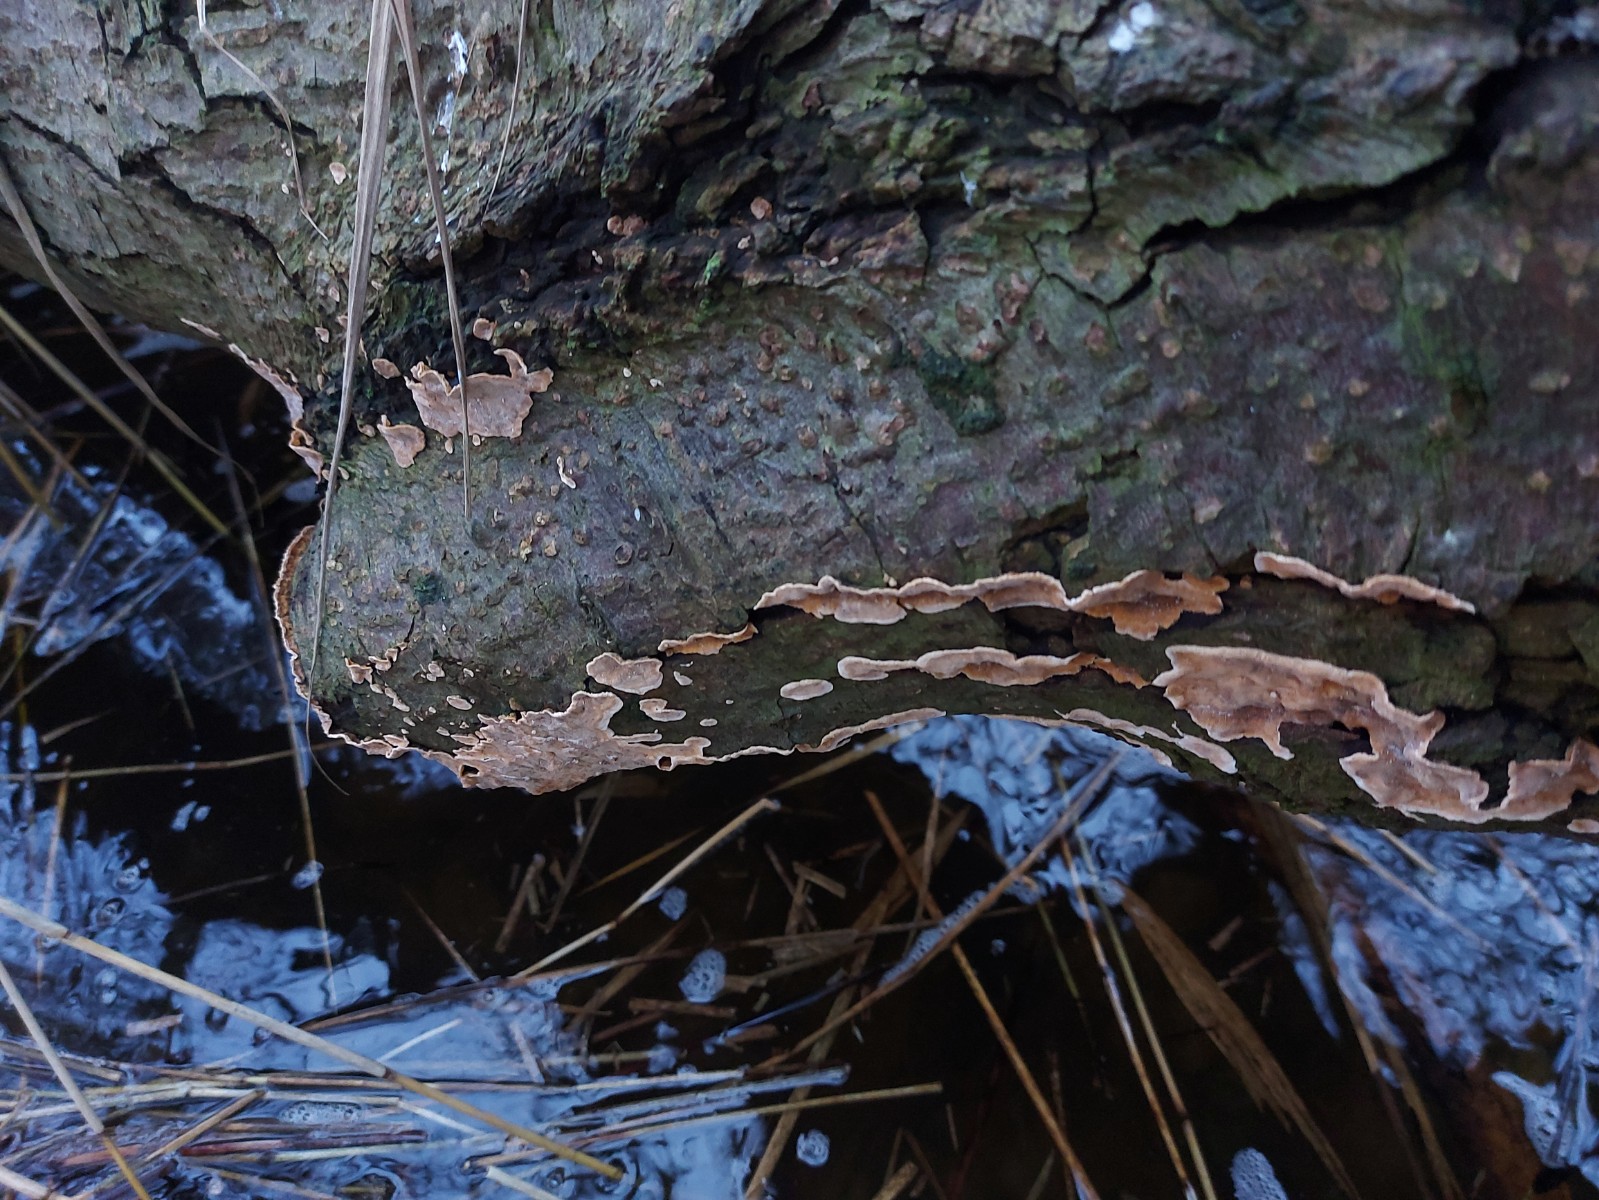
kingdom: Fungi
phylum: Basidiomycota
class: Agaricomycetes
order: Russulales
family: Stereaceae
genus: Stereum
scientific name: Stereum rugosum
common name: rynket lædersvamp
